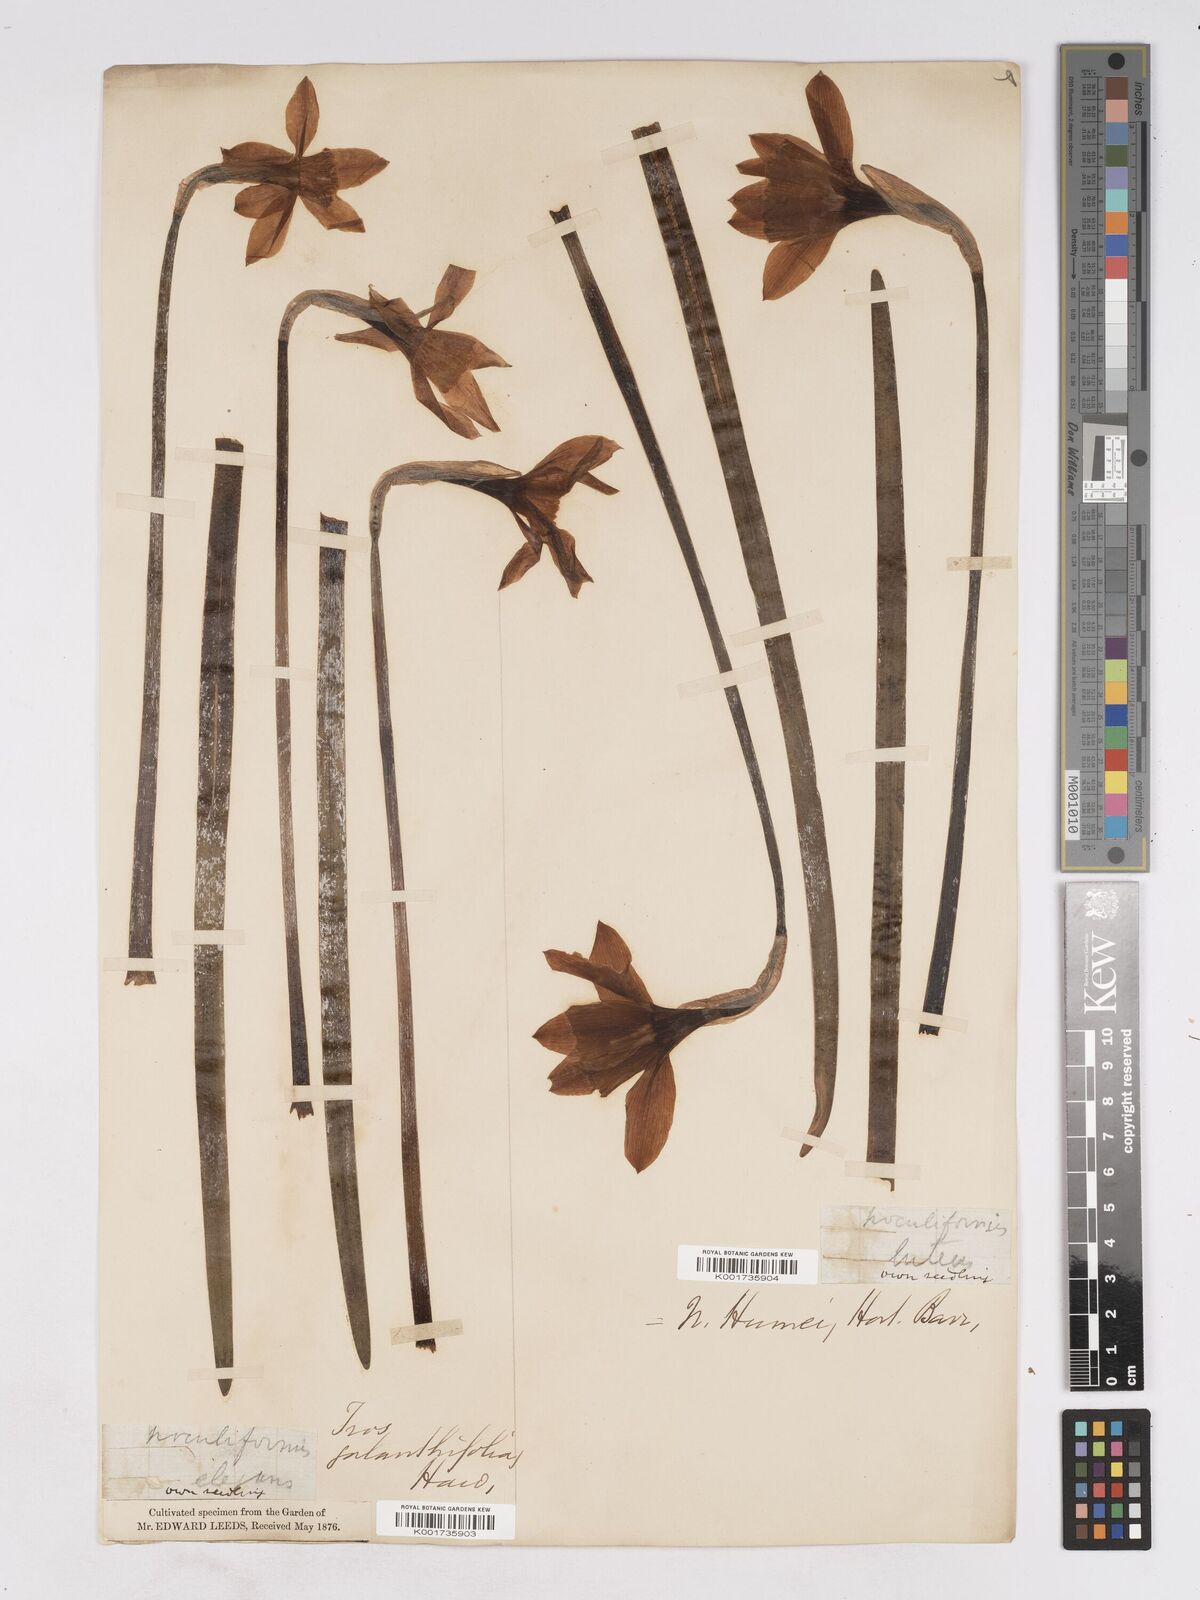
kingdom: Plantae
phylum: Tracheophyta
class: Liliopsida
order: Asparagales
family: Amaryllidaceae
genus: Narcissus
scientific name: Narcissus incomparabilis
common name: Nonesuch daffodil
